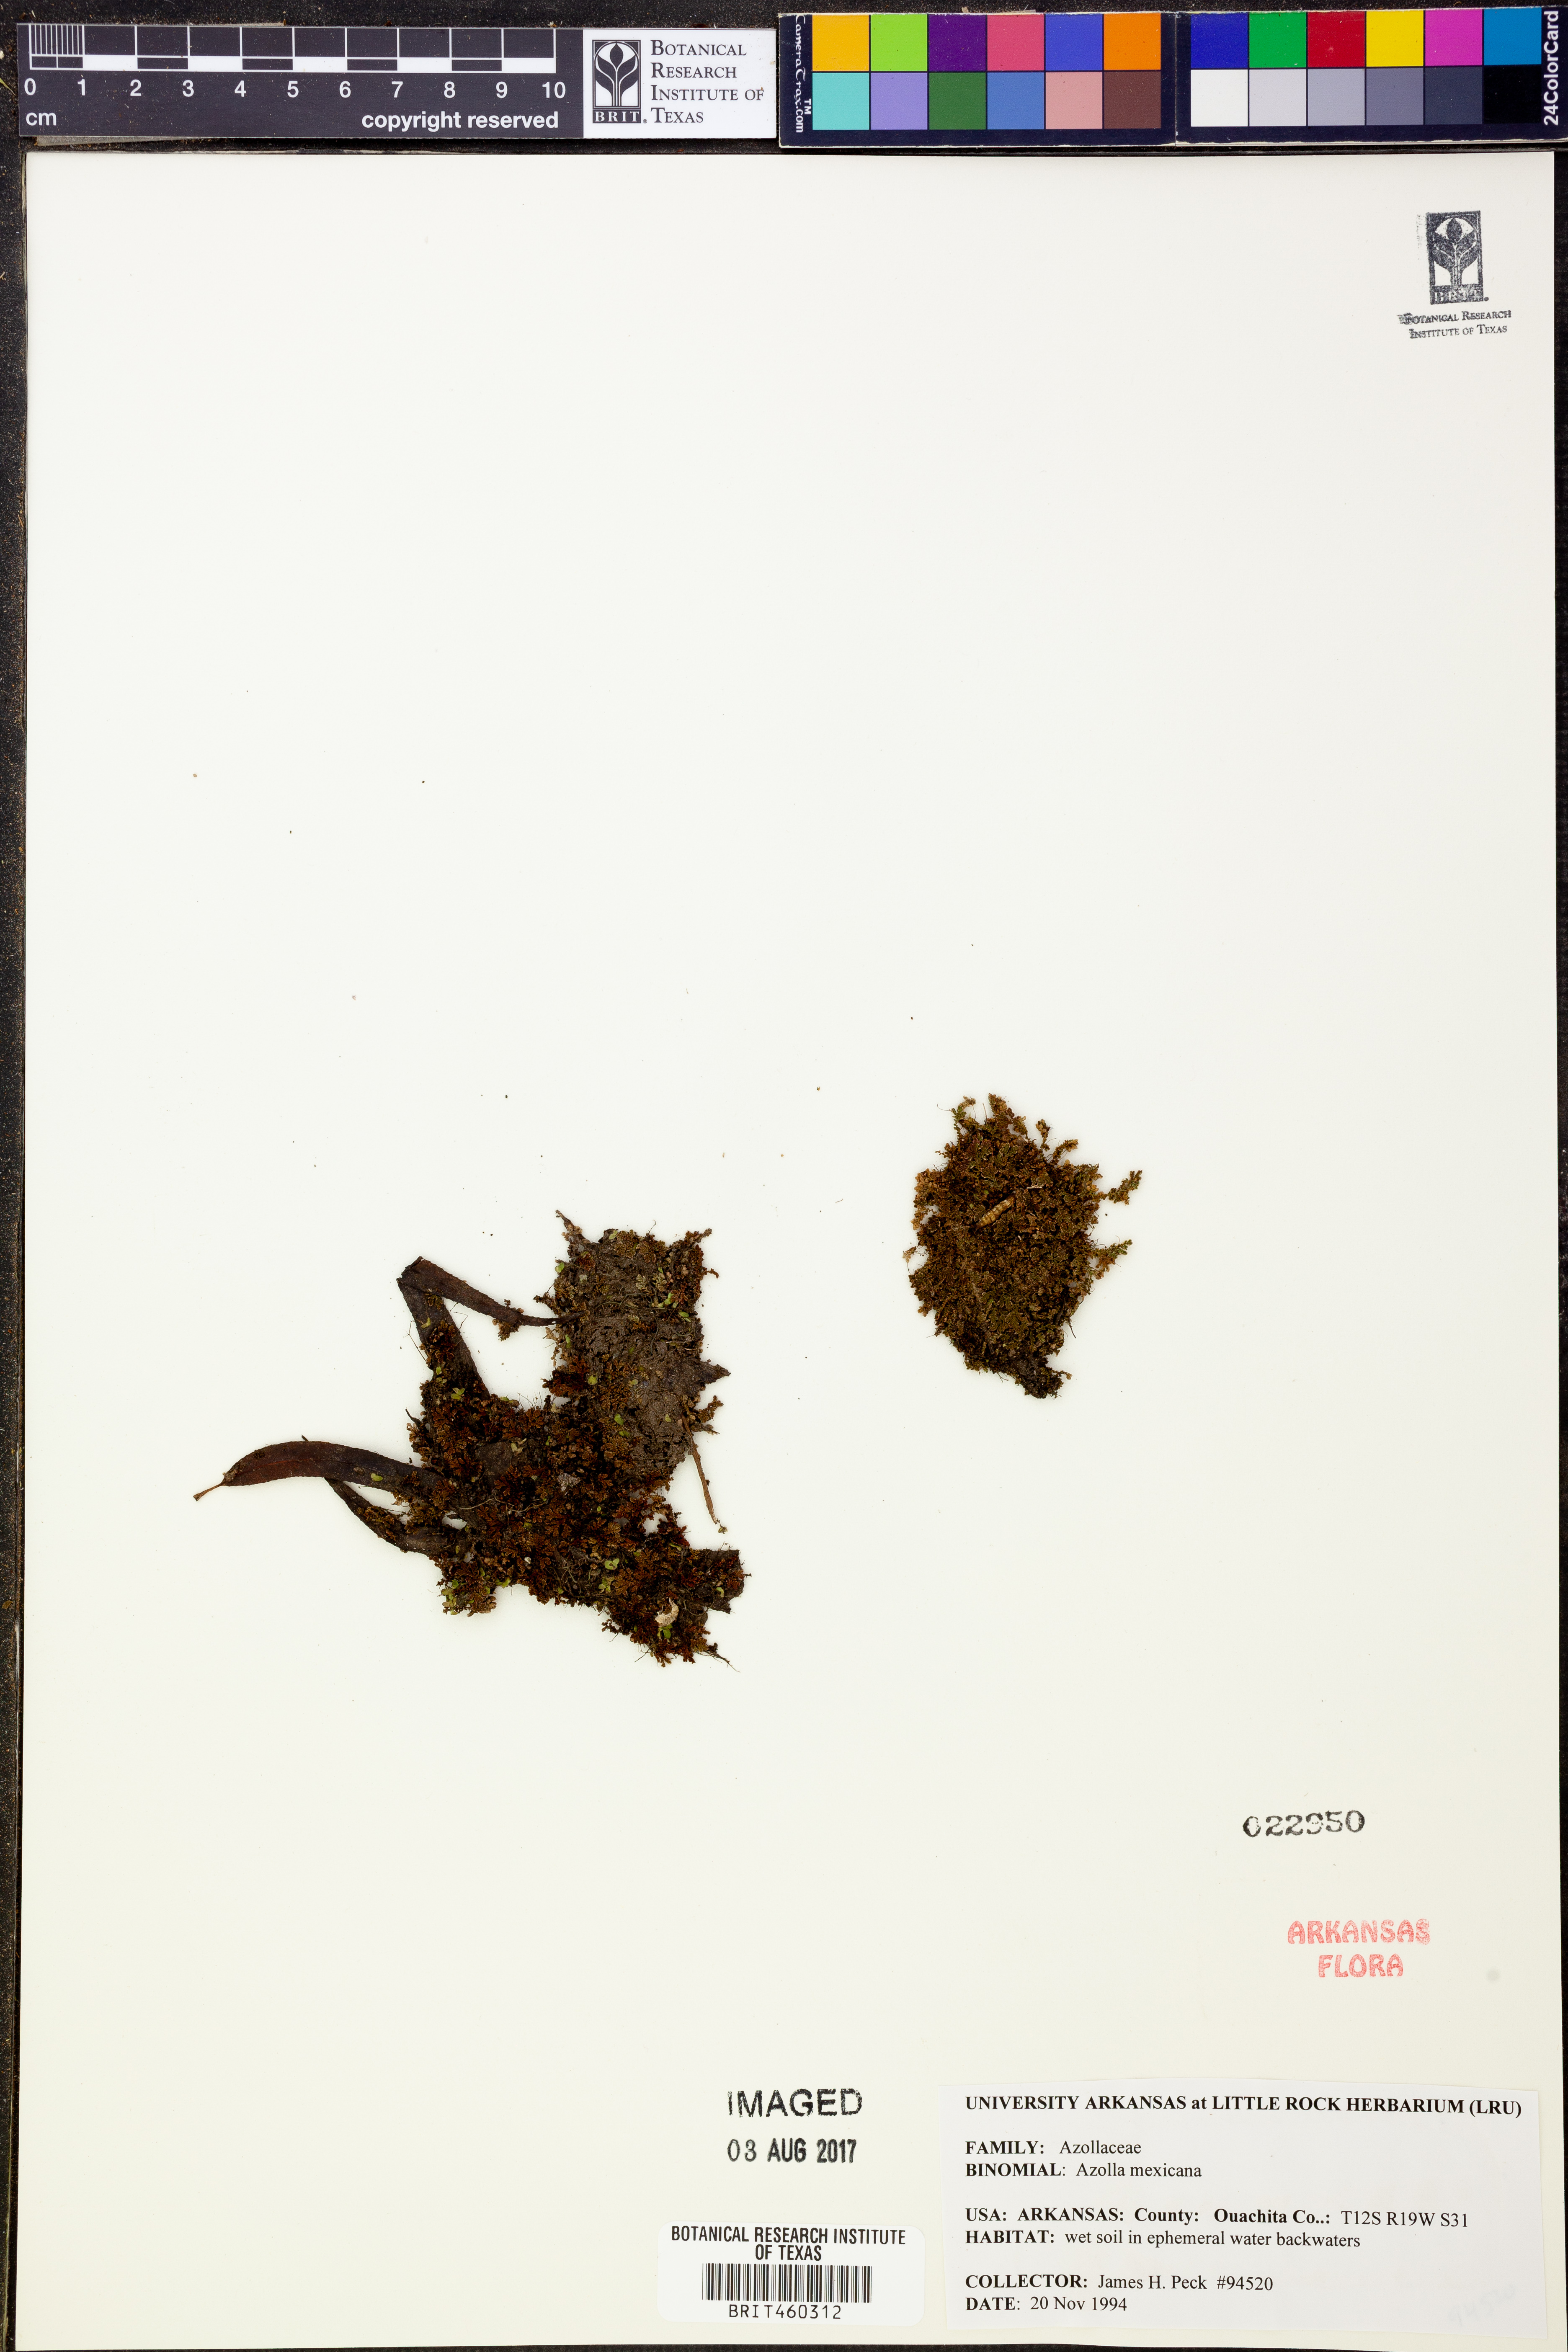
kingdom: Plantae
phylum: Tracheophyta
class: Polypodiopsida
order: Salviniales
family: Salviniaceae
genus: Azolla
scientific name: Azolla cristata
